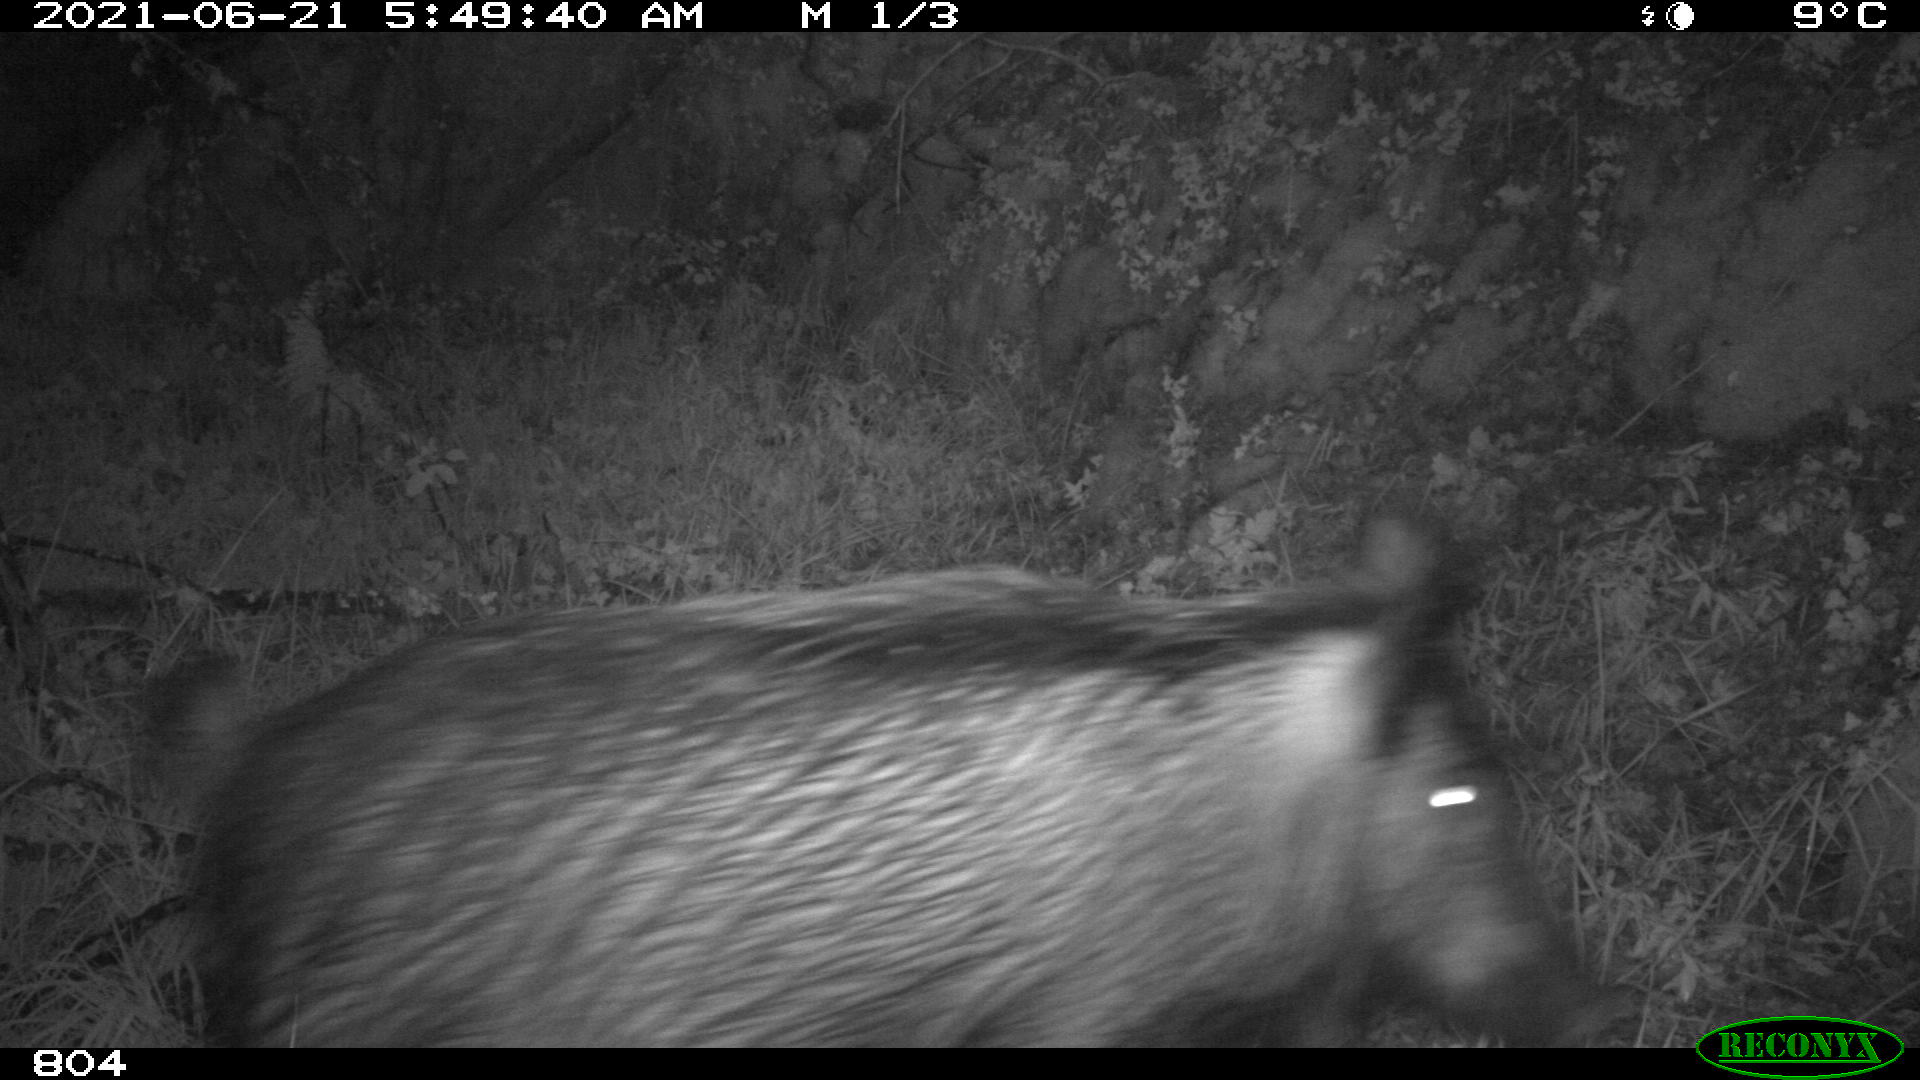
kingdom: Animalia
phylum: Chordata
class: Mammalia
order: Artiodactyla
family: Suidae
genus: Sus
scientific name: Sus scrofa
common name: Wild boar
